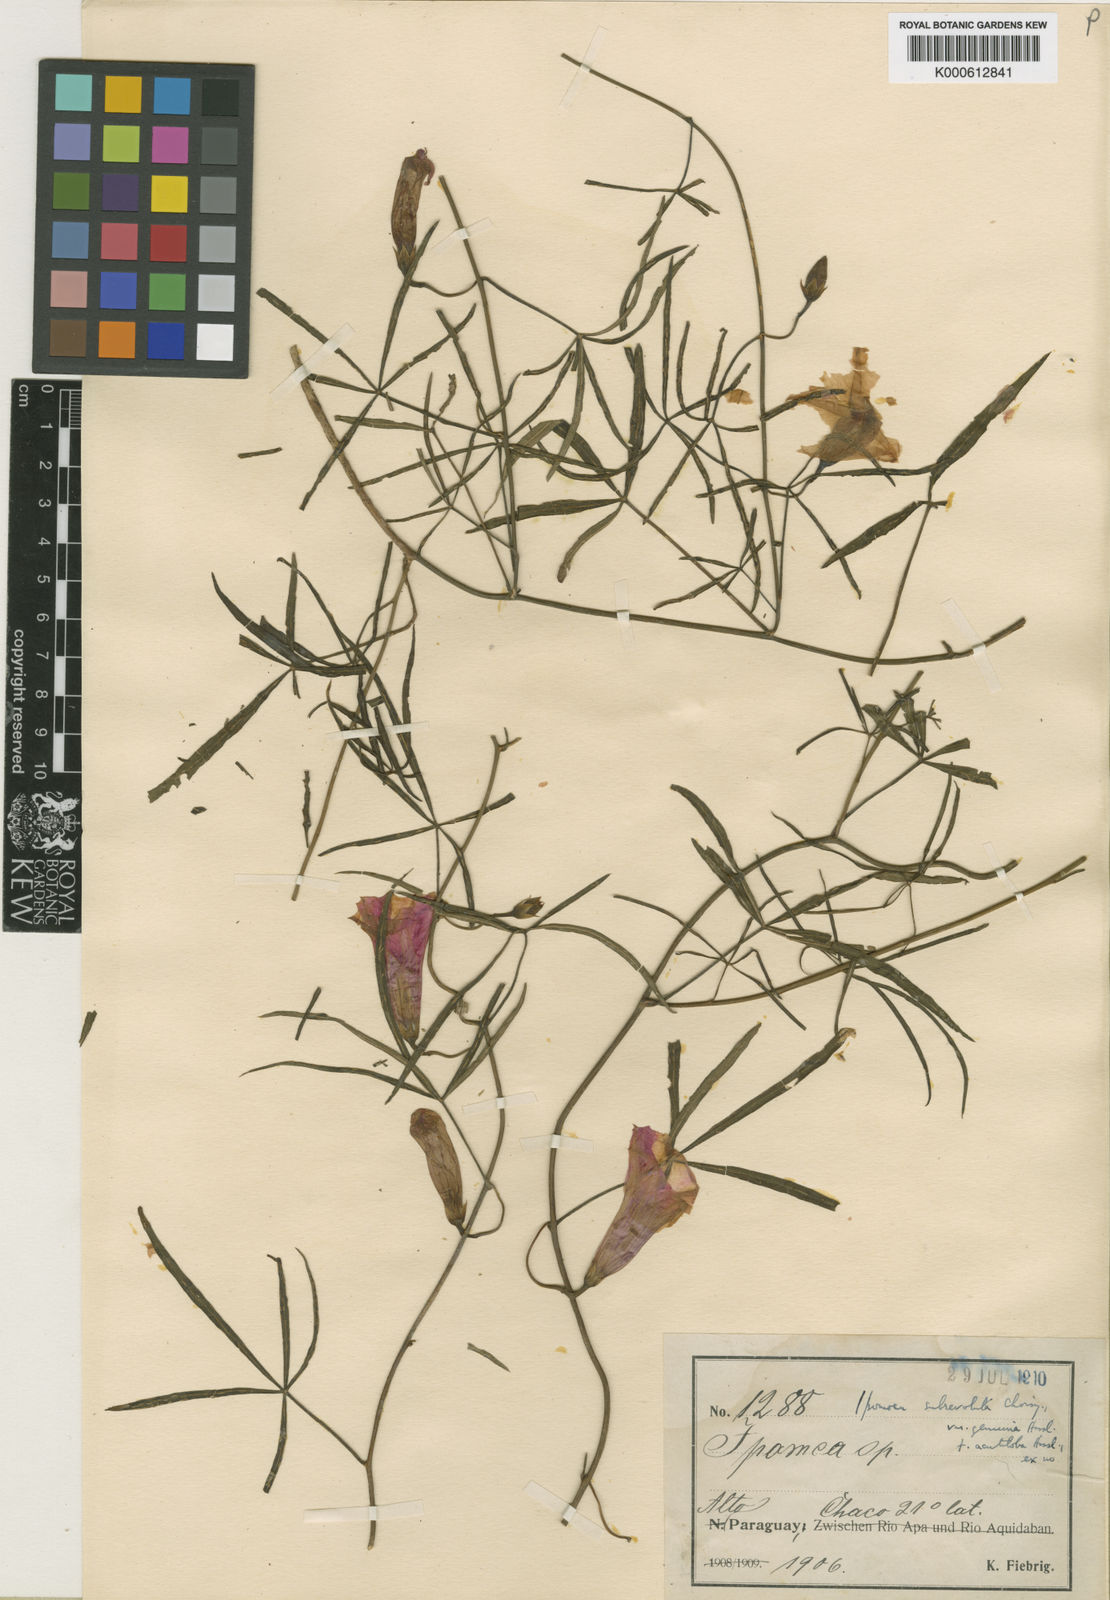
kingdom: Plantae
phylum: Tracheophyta
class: Magnoliopsida
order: Solanales
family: Convolvulaceae
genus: Ipomoea
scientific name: Ipomoea subrevoluta
